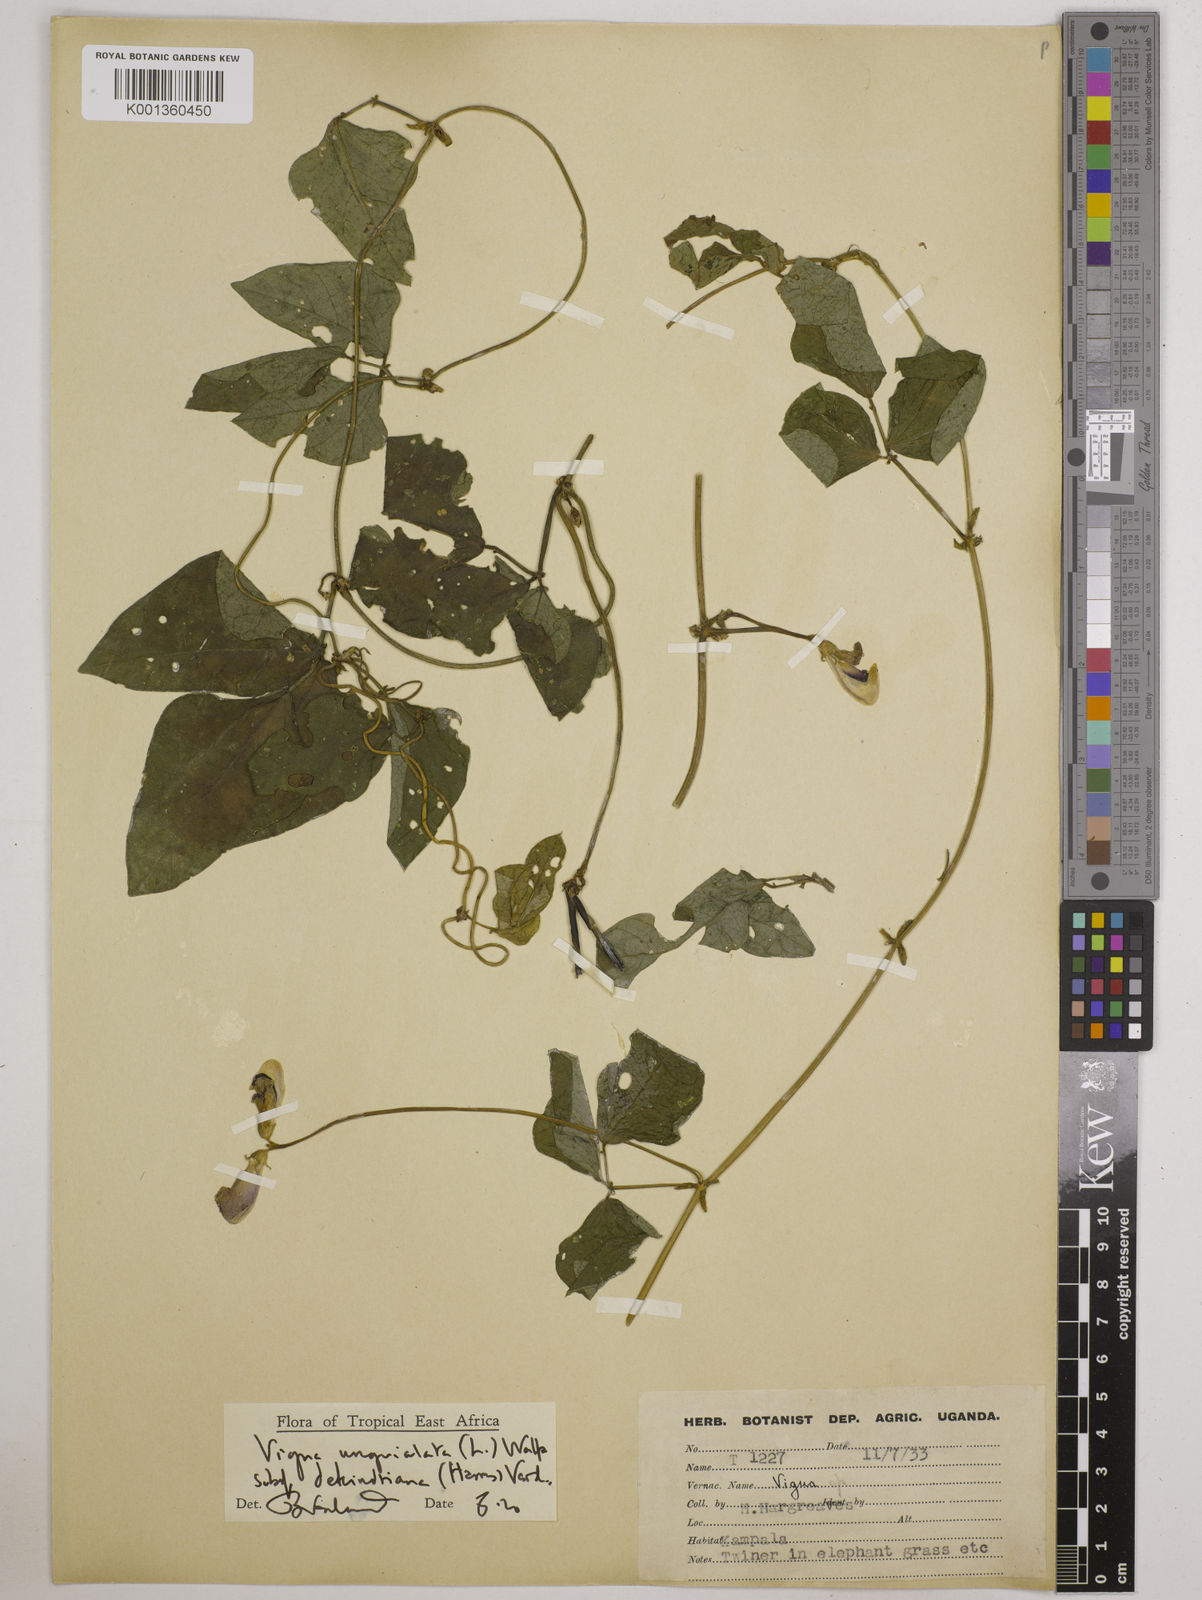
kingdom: Plantae
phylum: Tracheophyta
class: Magnoliopsida
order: Fabales
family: Fabaceae
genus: Vigna
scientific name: Vigna unguiculata
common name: Cowpea
